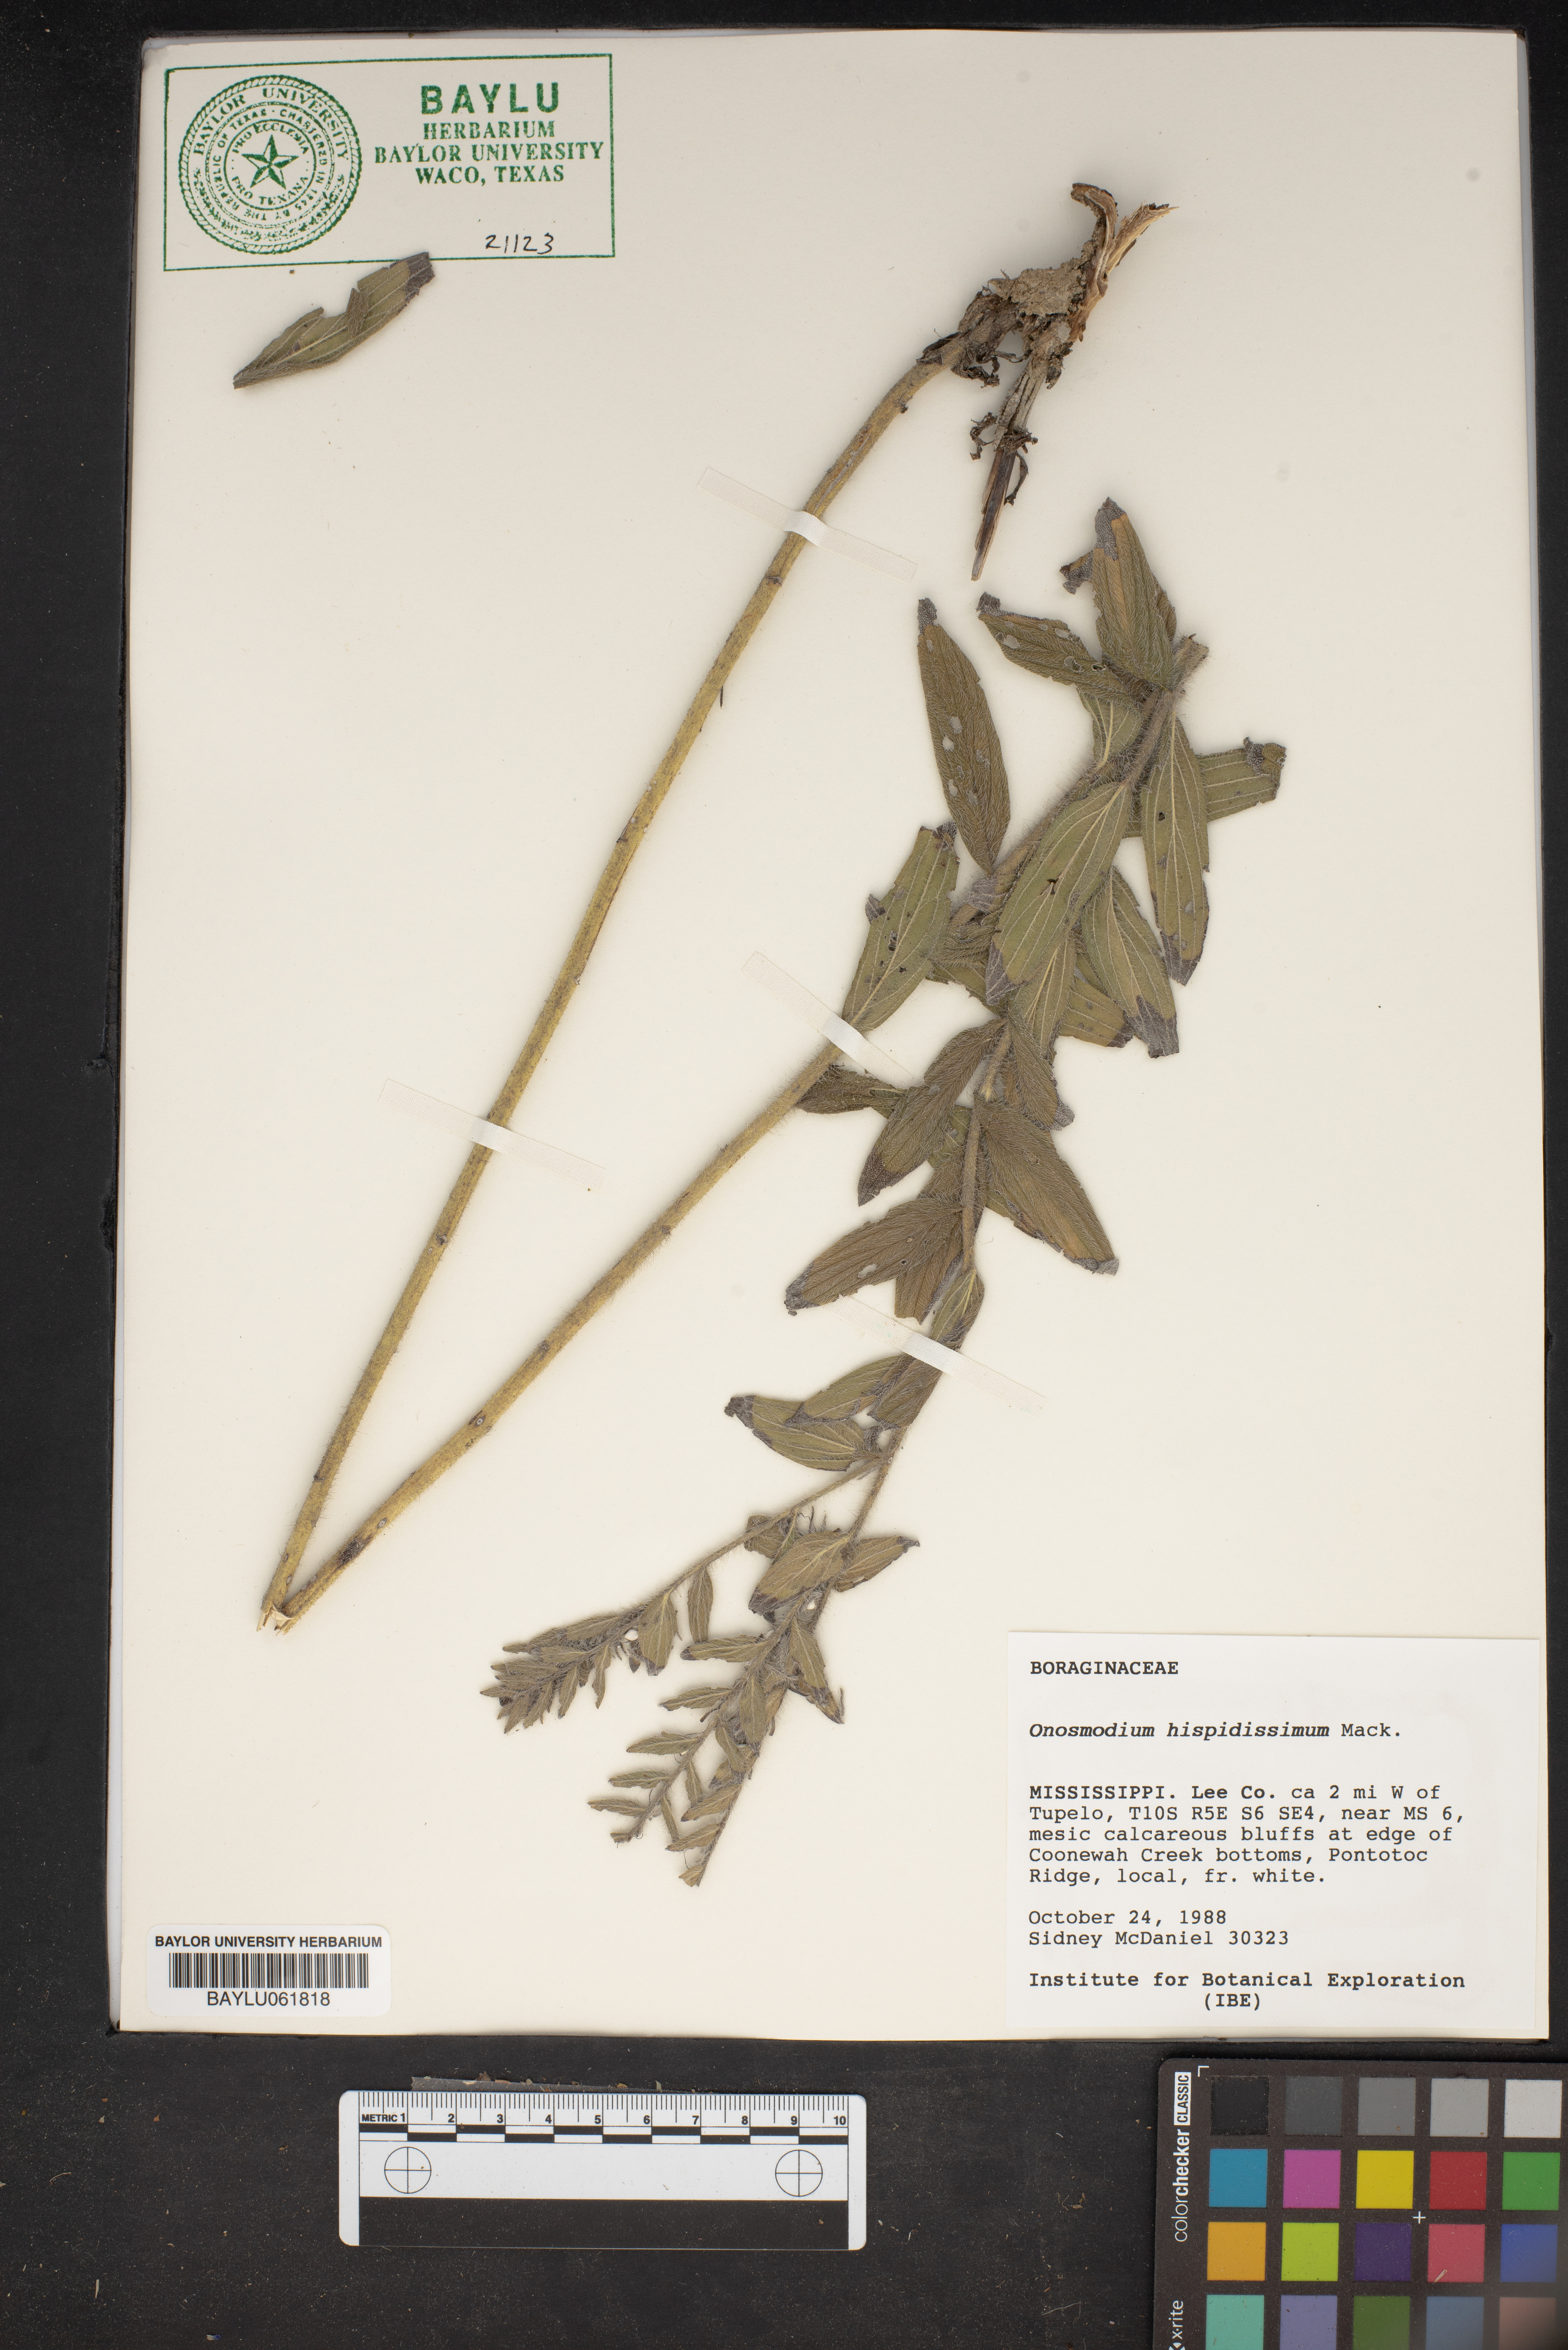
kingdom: Plantae
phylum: Tracheophyta
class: Magnoliopsida
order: Boraginales
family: Boraginaceae
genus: Lithospermum
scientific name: Lithospermum parviflorum
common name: Hairy false gromwell
